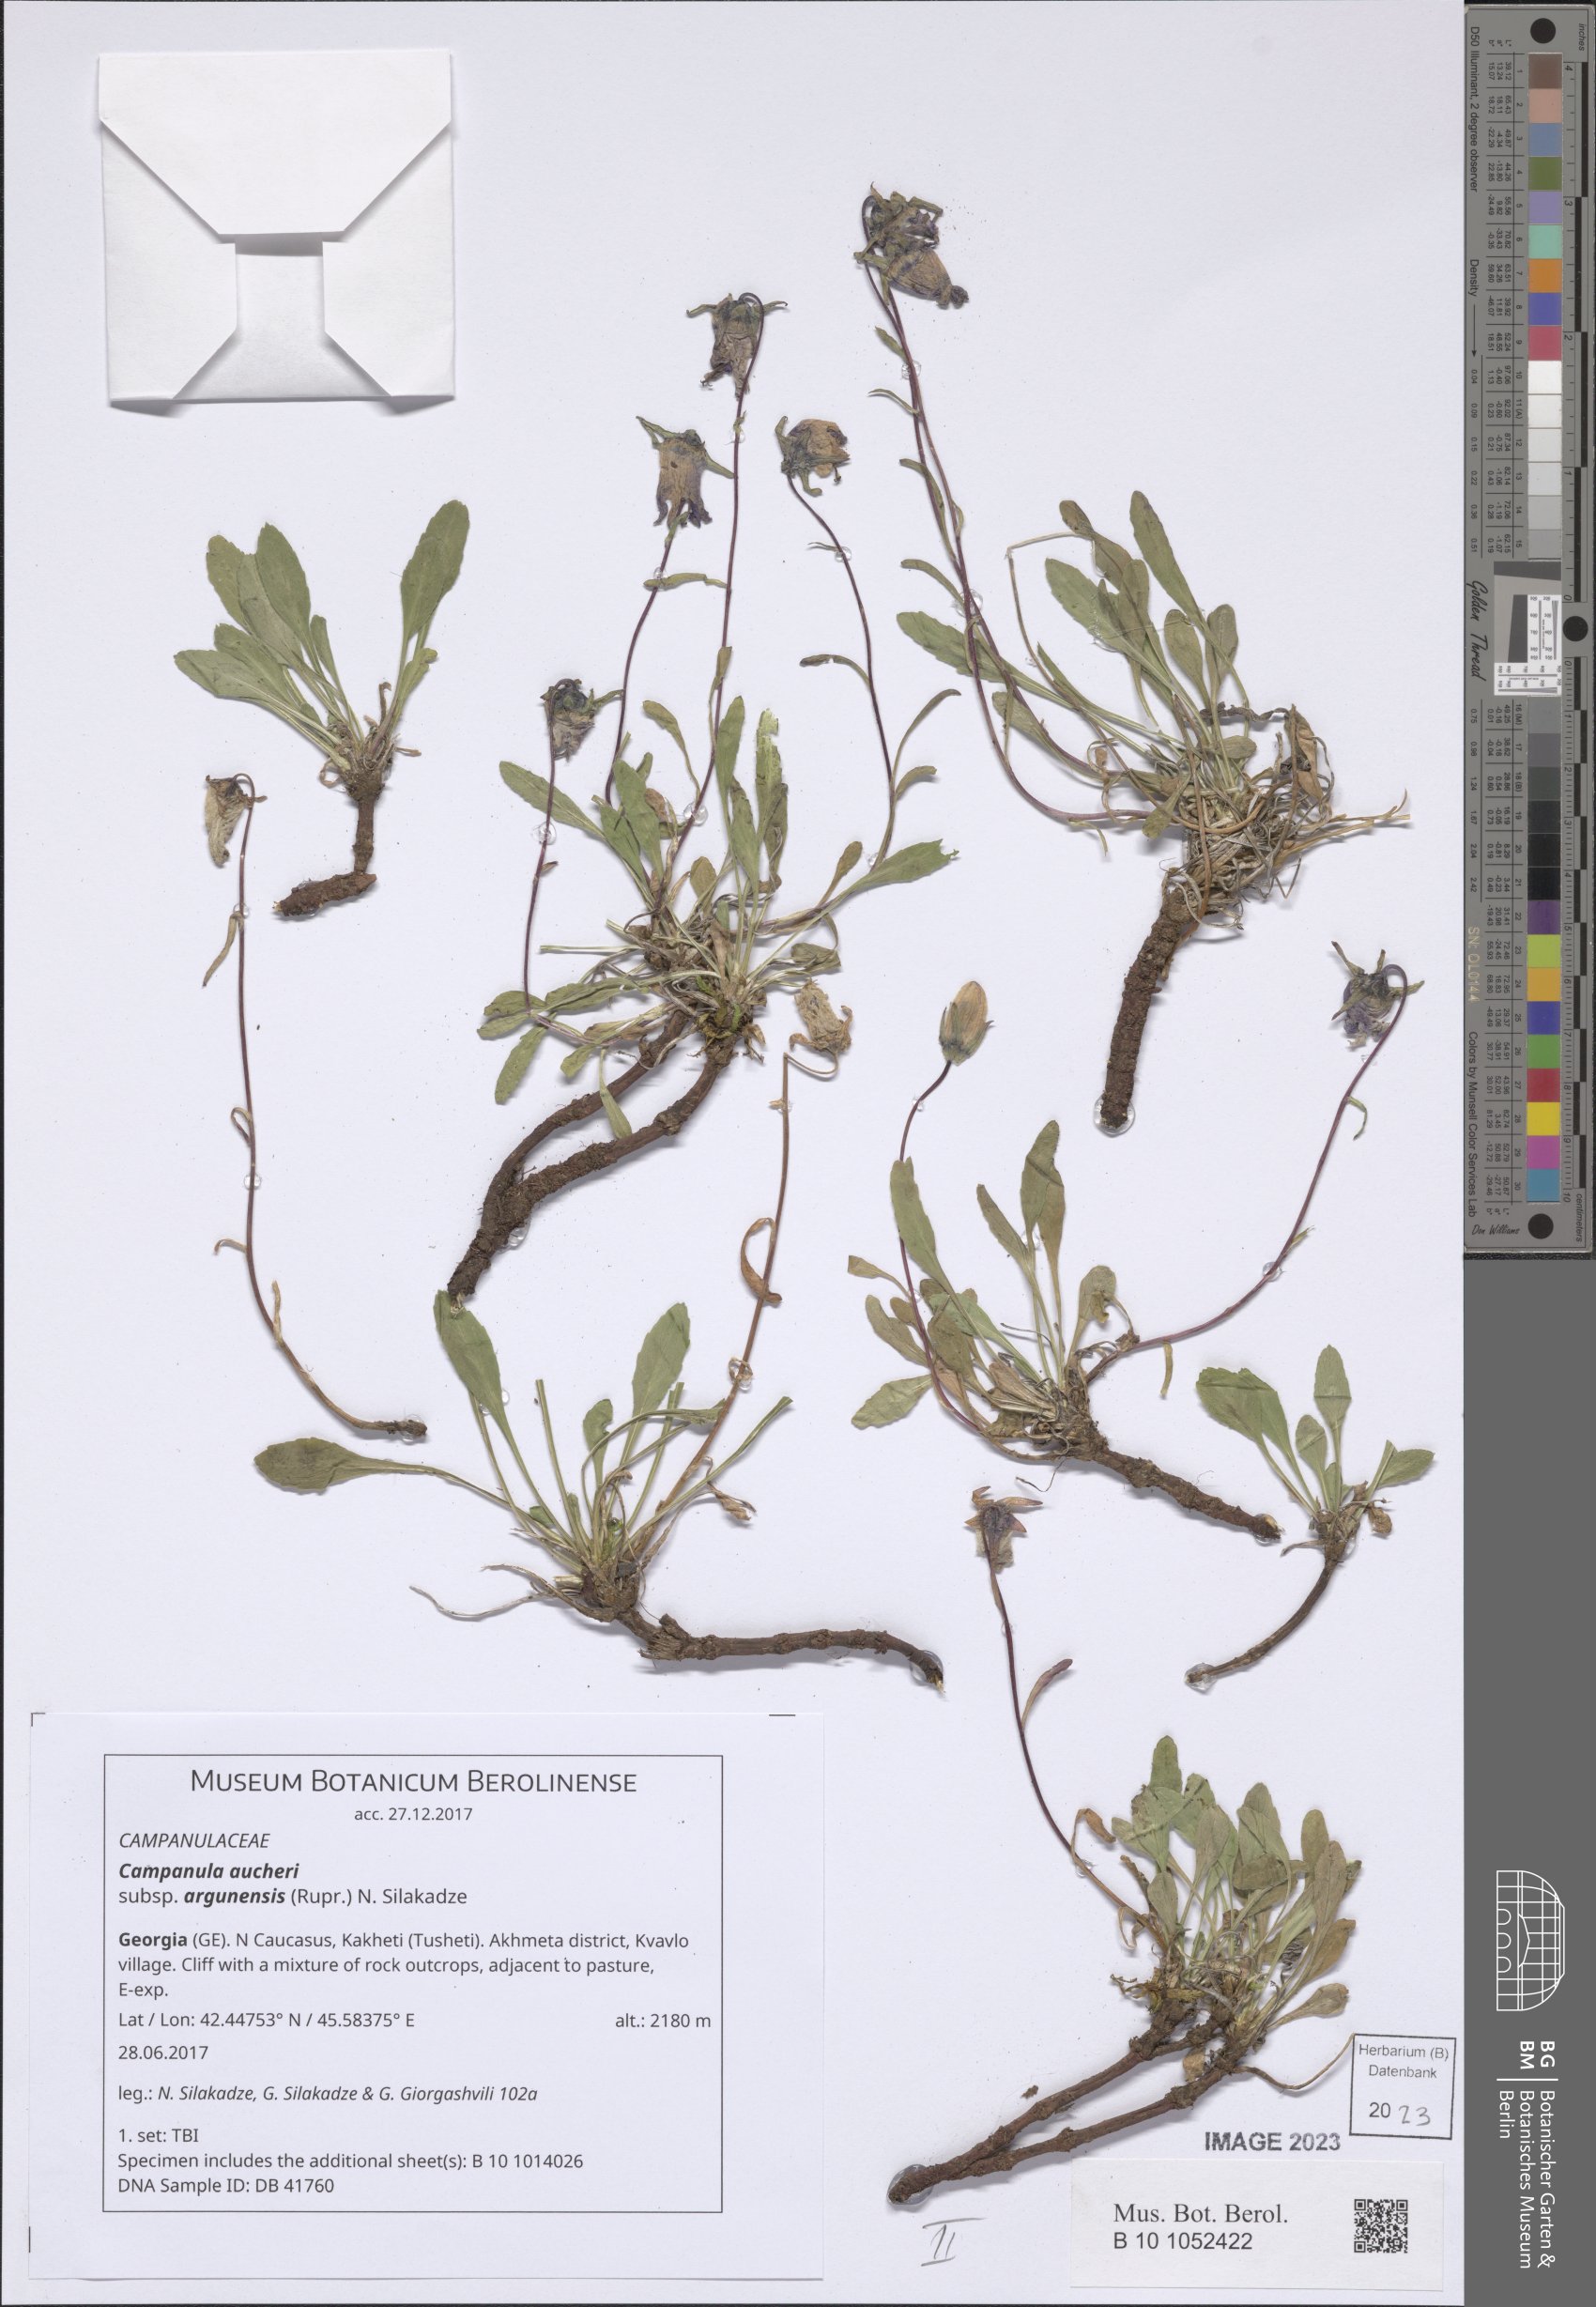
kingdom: Plantae
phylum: Tracheophyta
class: Magnoliopsida
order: Asterales
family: Campanulaceae
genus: Campanula
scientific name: Campanula saxifraga
